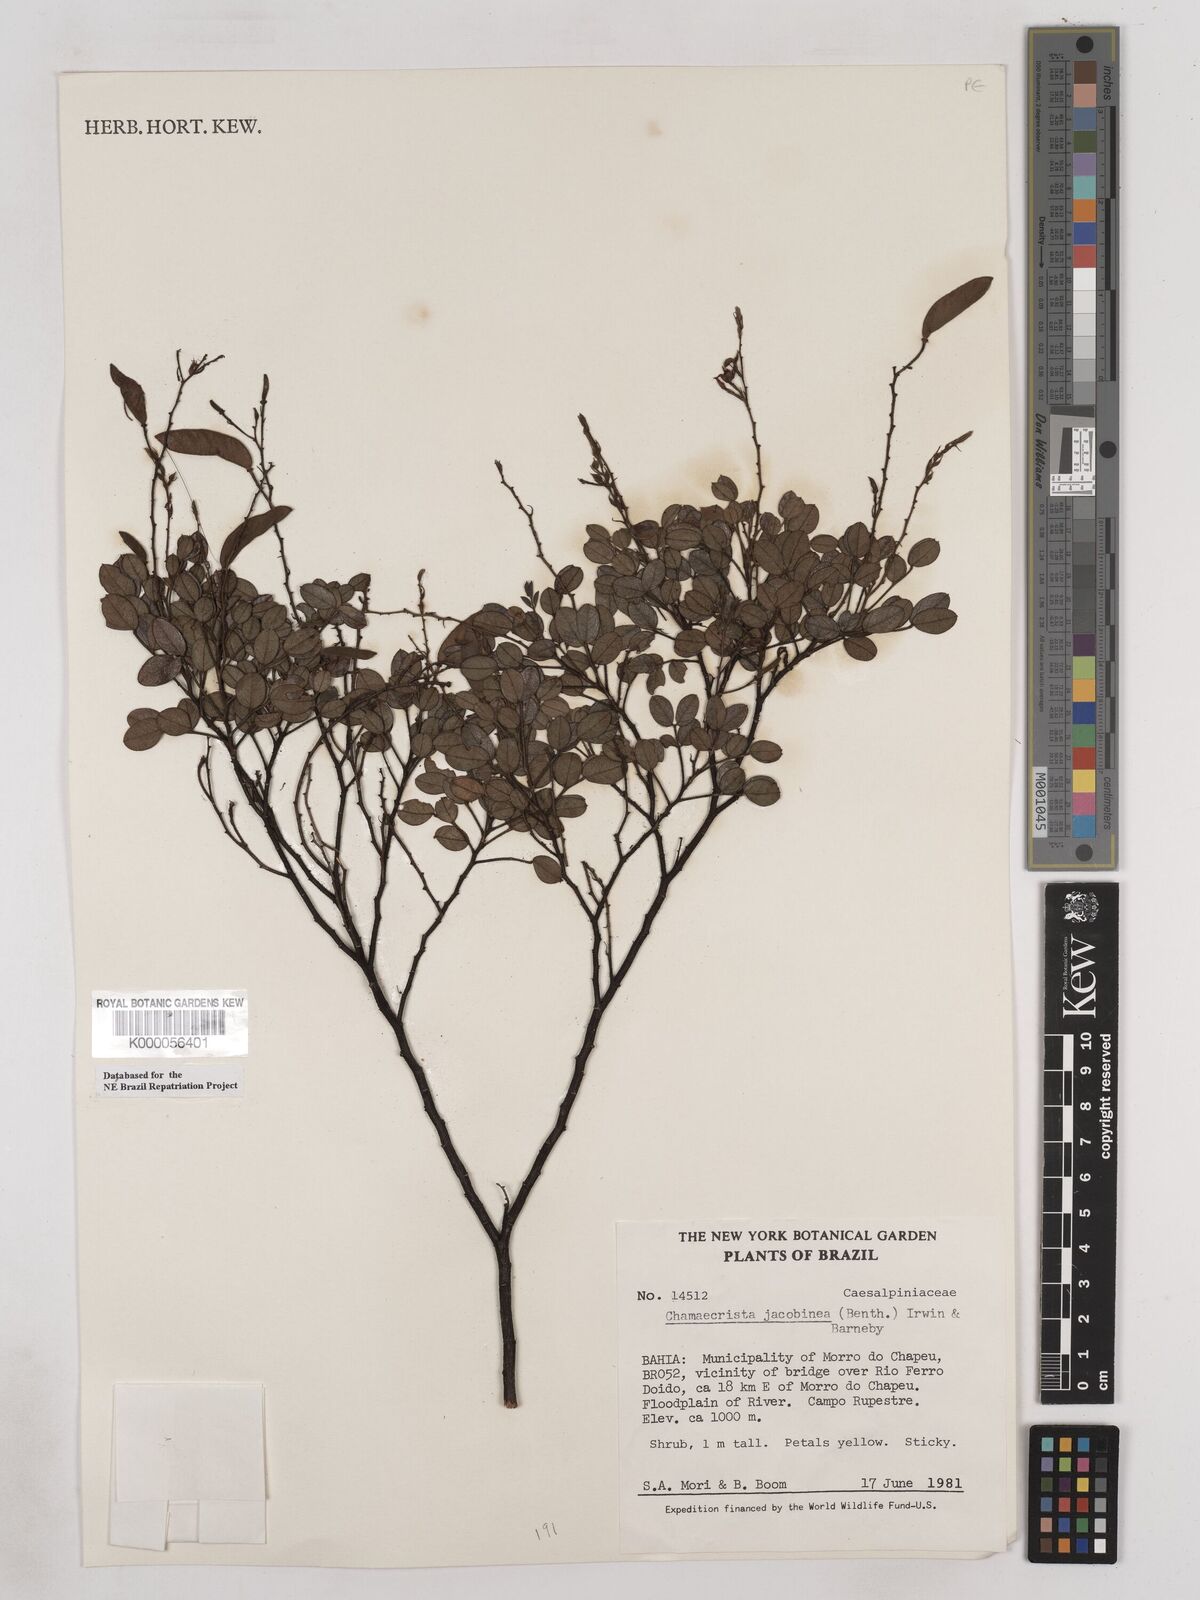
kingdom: Plantae
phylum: Tracheophyta
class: Magnoliopsida
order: Fabales
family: Fabaceae
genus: Chamaecrista
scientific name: Chamaecrista jacobinea
